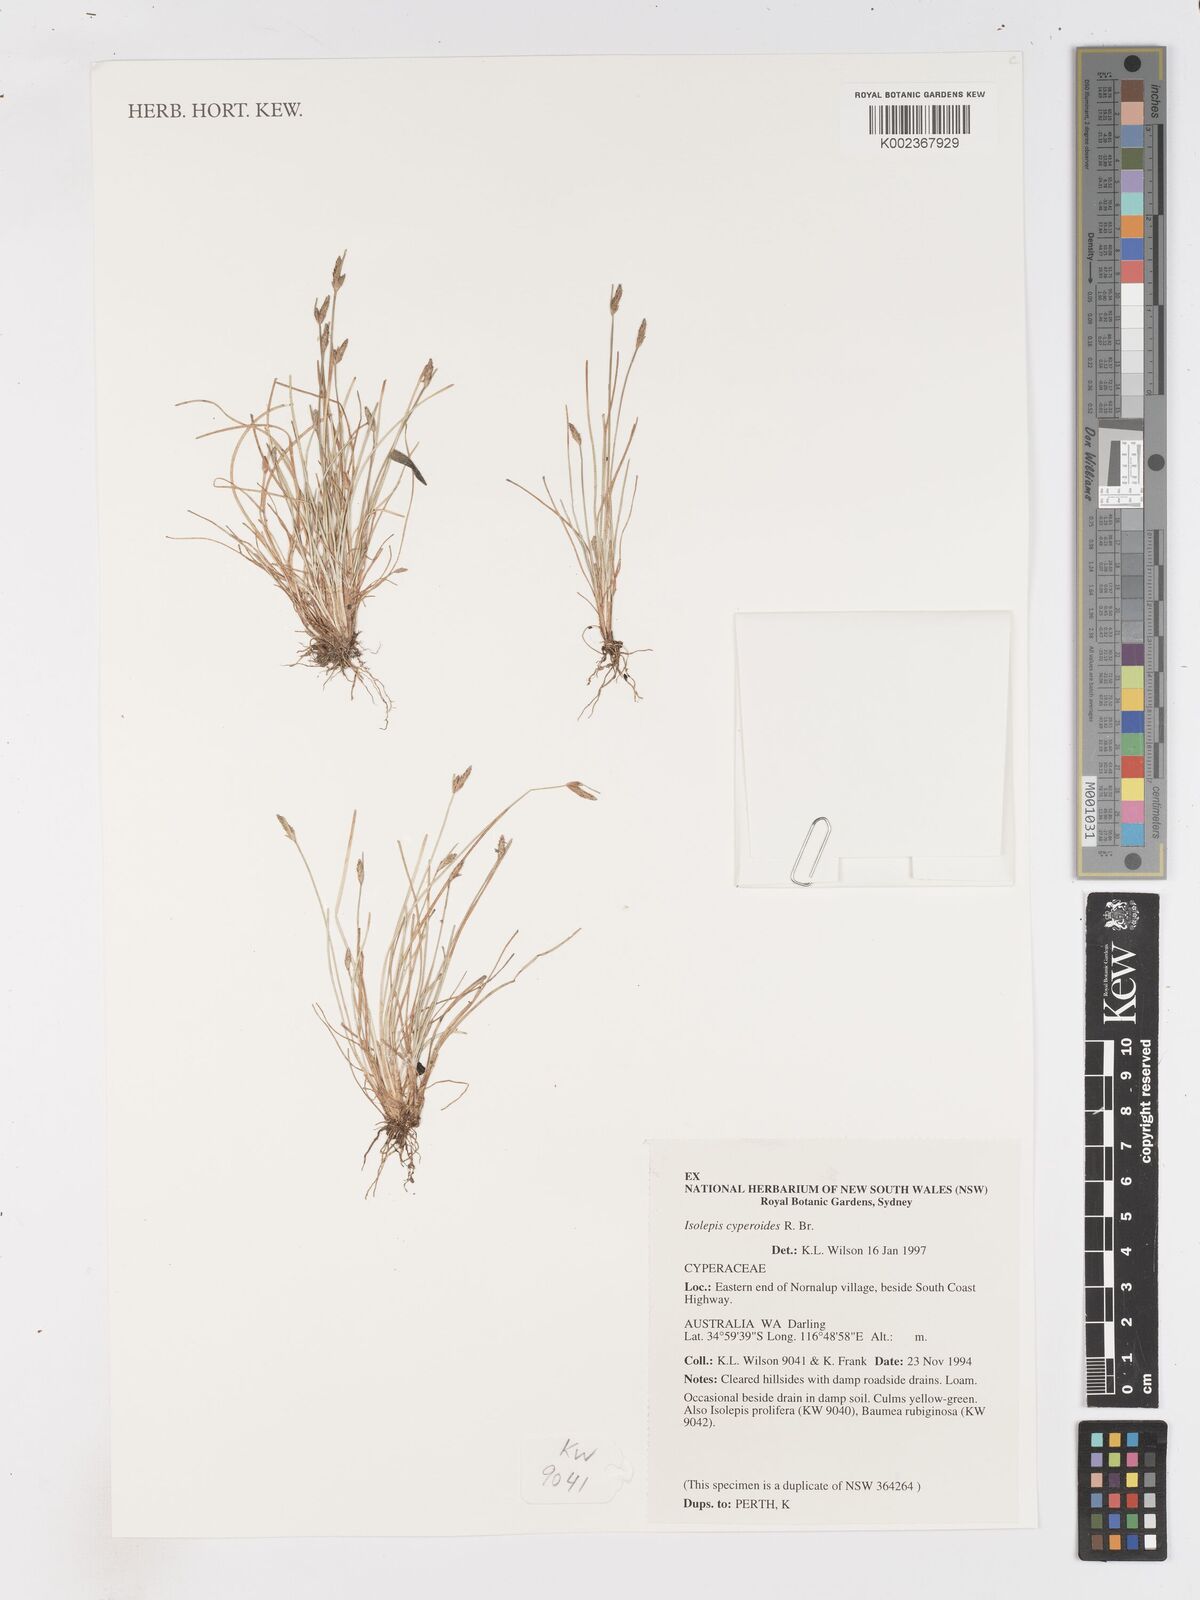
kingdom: Plantae
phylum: Tracheophyta
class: Liliopsida
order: Poales
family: Cyperaceae
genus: Isolepis
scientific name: Isolepis cyperoides
